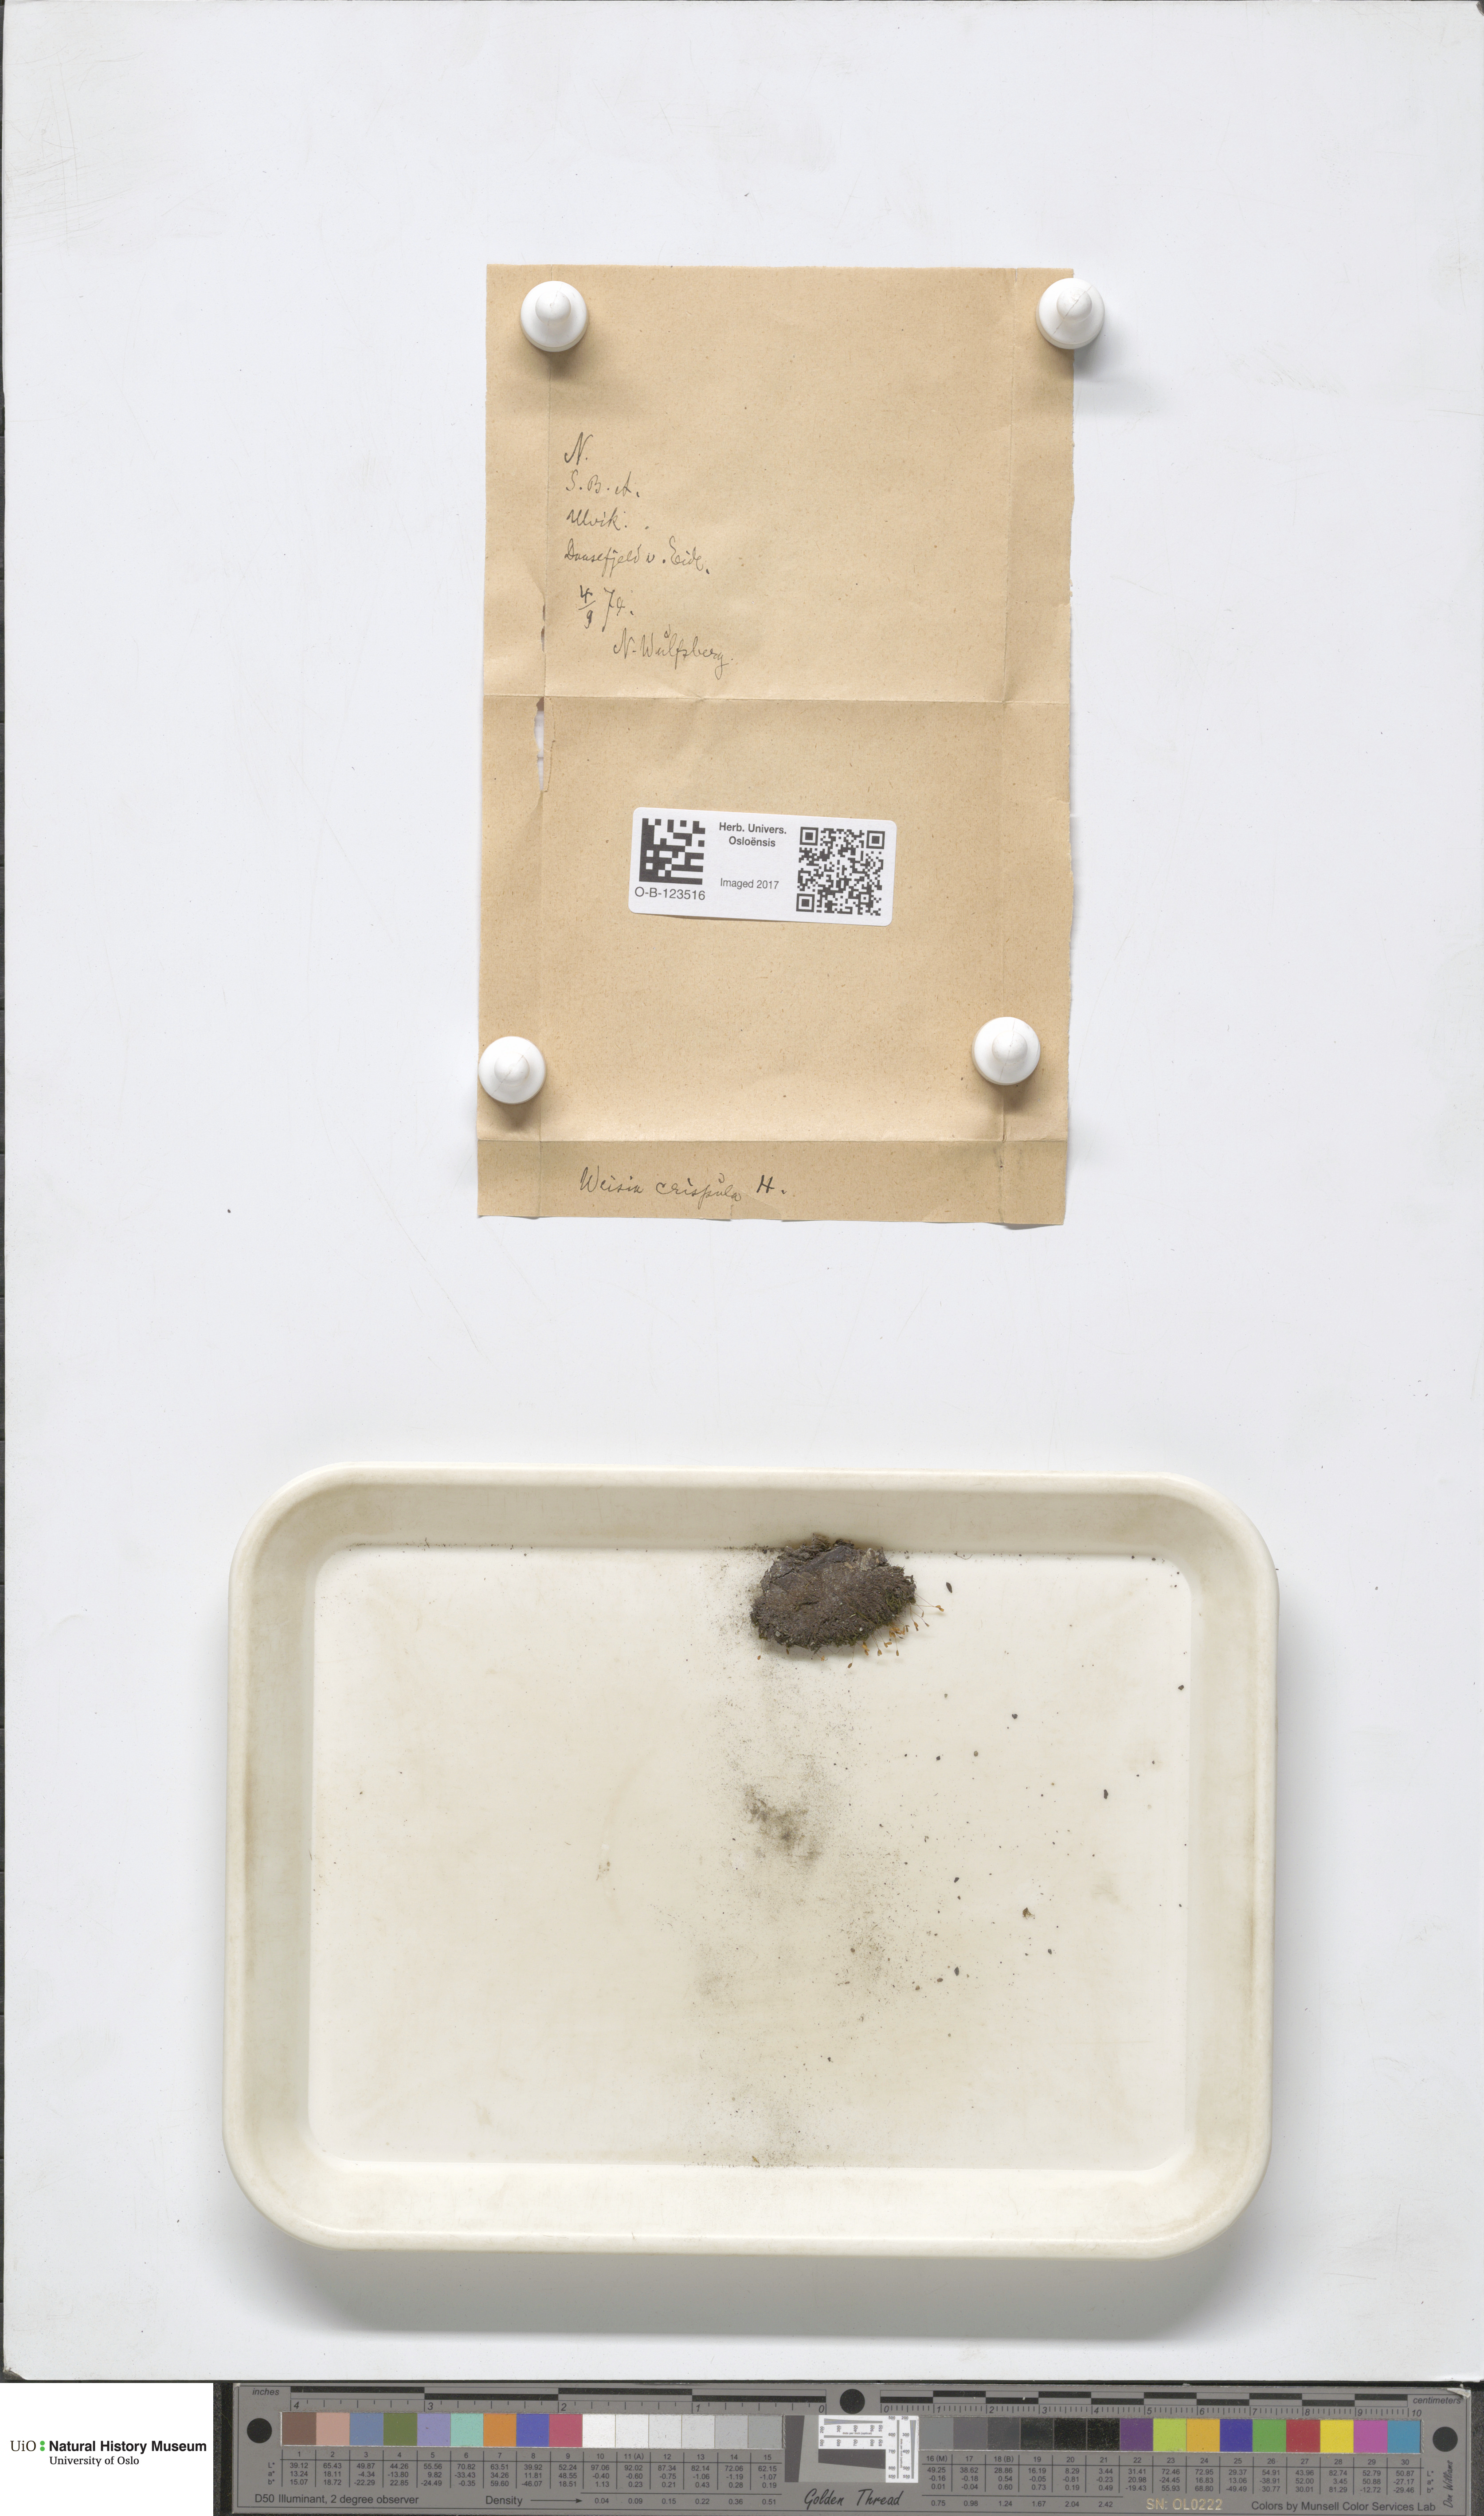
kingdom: Plantae
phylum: Bryophyta
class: Bryopsida
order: Scouleriales
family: Hymenolomataceae
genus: Hymenoloma
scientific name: Hymenoloma crispulum
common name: Mountain pincushion
